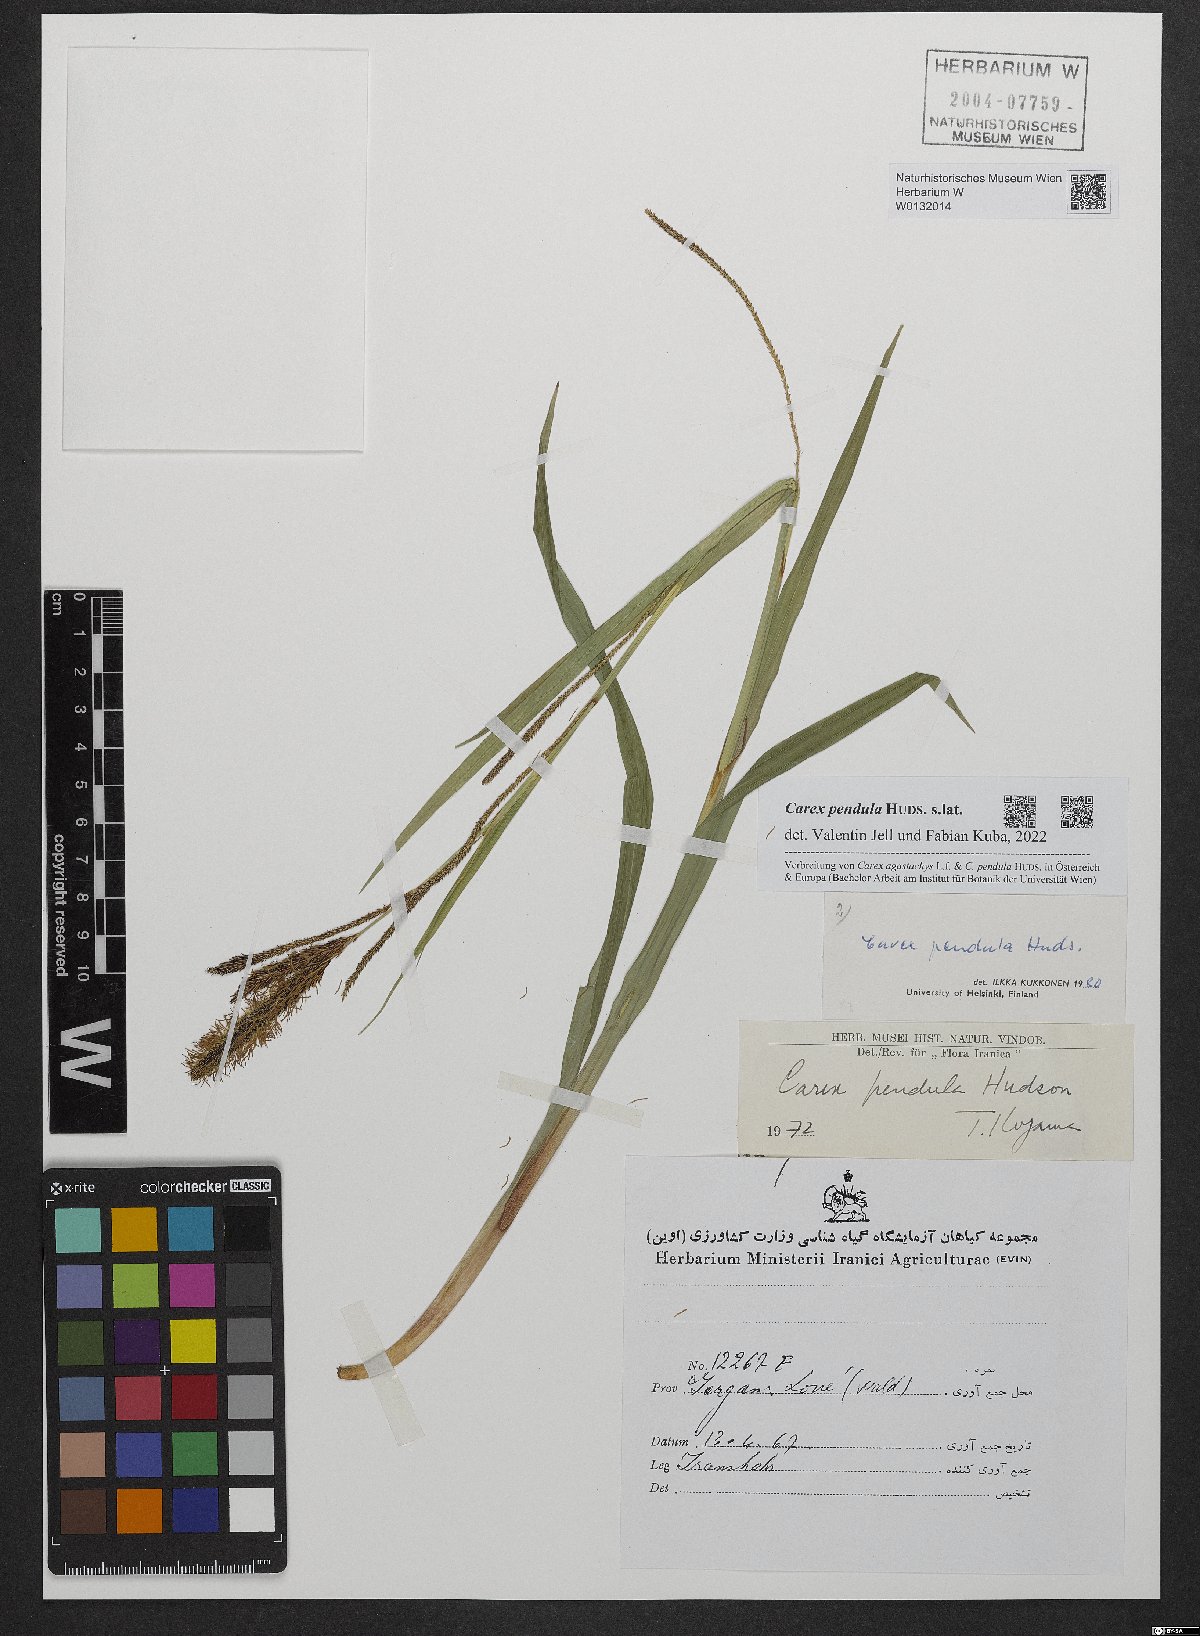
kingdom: Plantae
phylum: Tracheophyta
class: Liliopsida
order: Poales
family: Cyperaceae
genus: Carex
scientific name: Carex pendula
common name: Pendulous sedge
